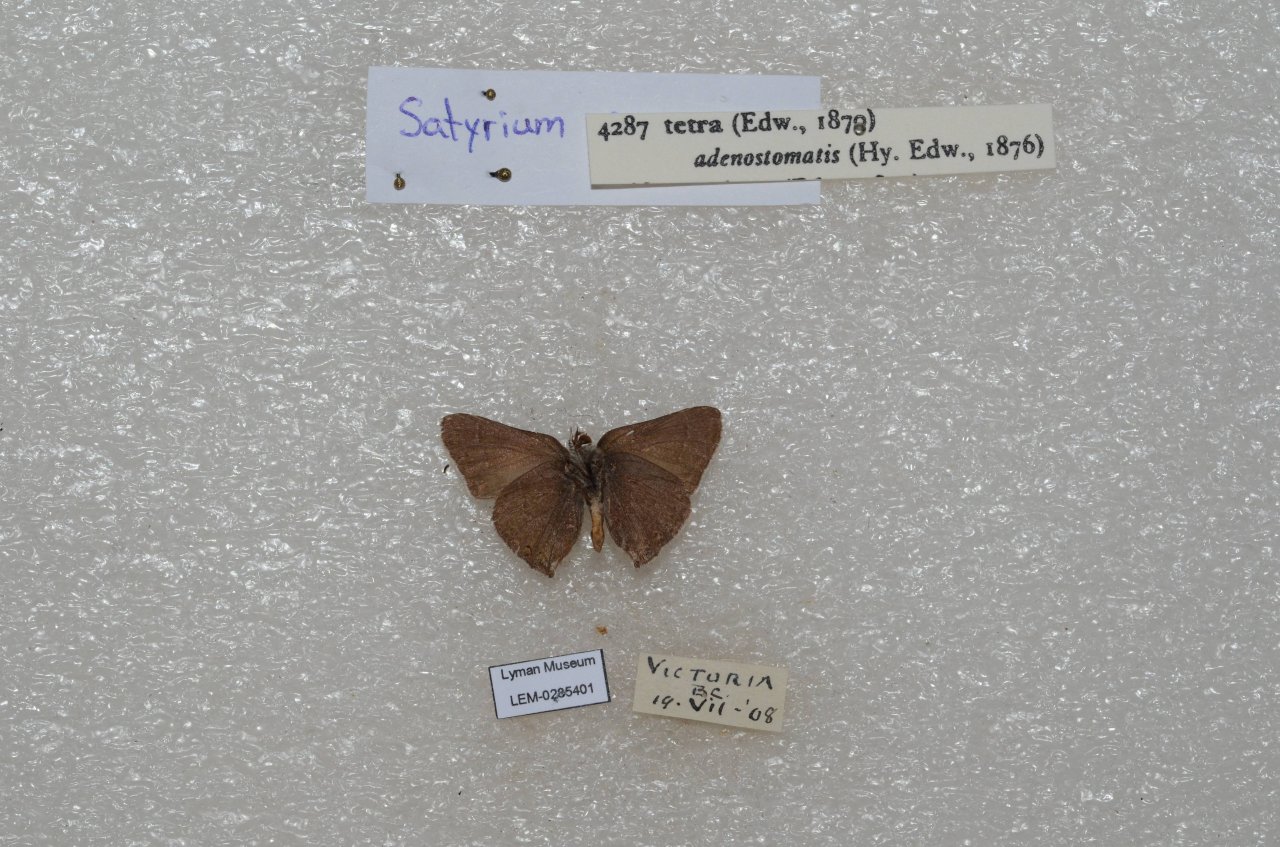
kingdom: Animalia
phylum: Arthropoda
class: Insecta
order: Lepidoptera
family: Lycaenidae
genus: Satyrium
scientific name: Satyrium
